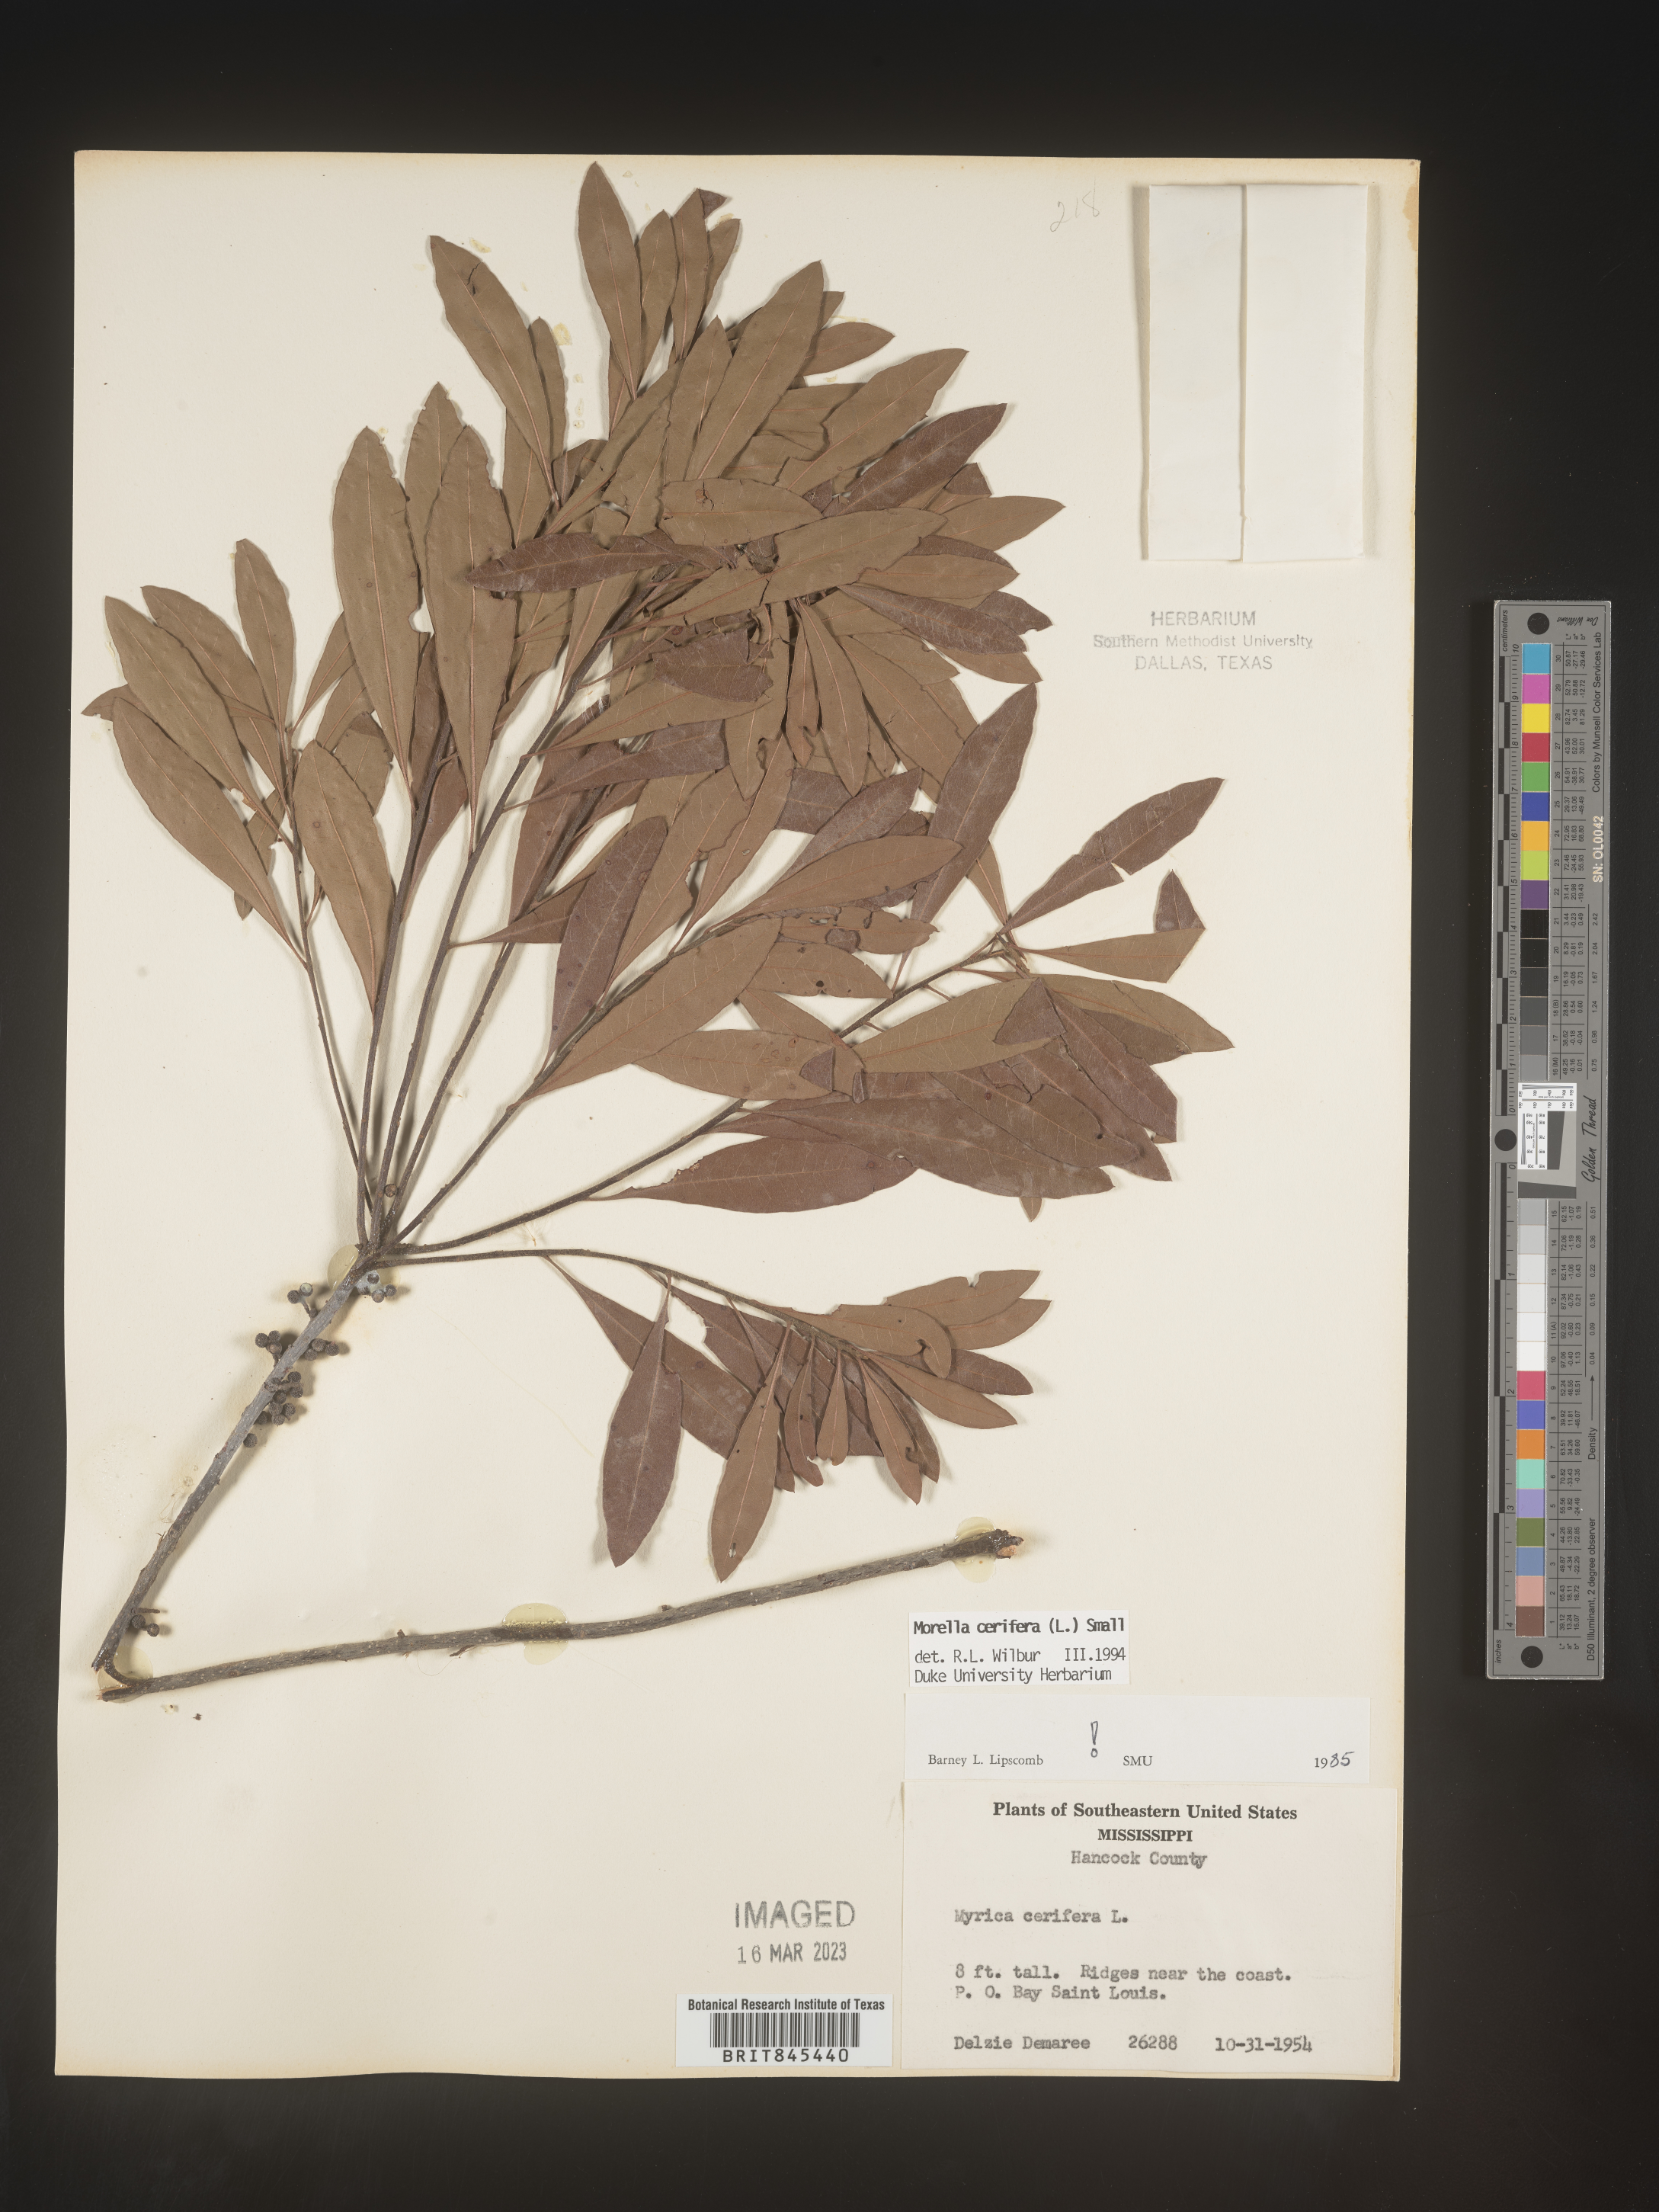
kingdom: Plantae
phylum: Tracheophyta
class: Magnoliopsida
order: Fagales
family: Myricaceae
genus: Morella
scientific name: Morella cerifera
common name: Wax myrtle
